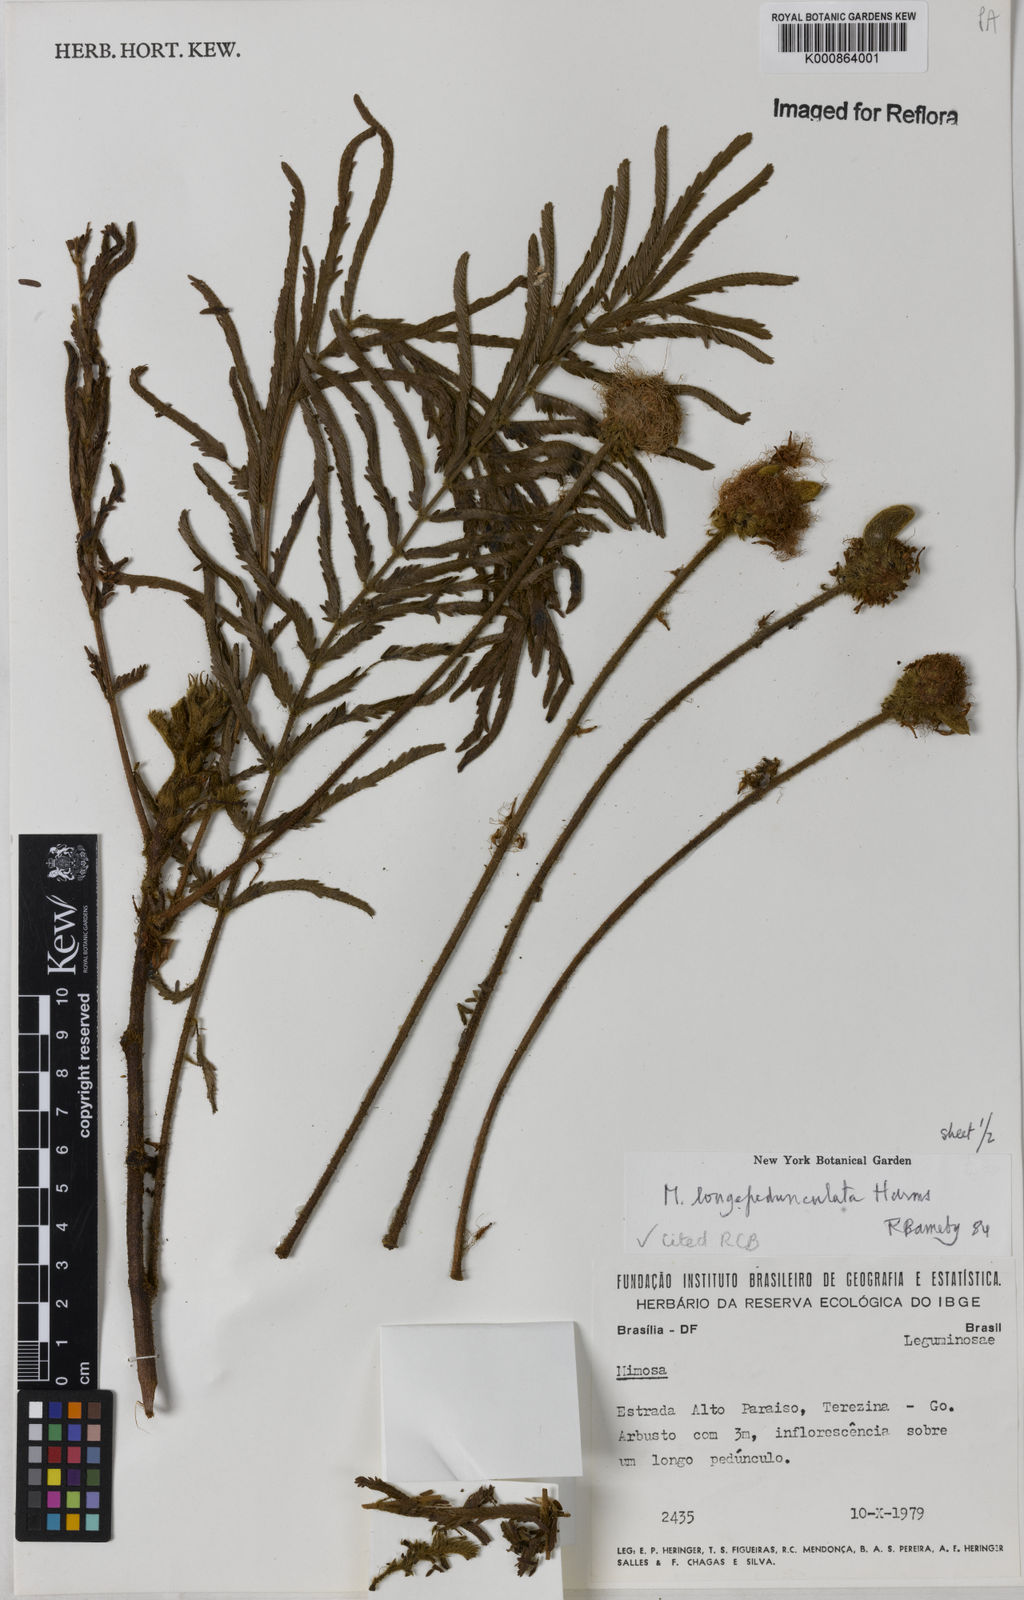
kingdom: Plantae
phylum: Tracheophyta
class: Magnoliopsida
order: Fabales
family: Fabaceae
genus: Mimosa
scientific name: Mimosa longepedunculata
